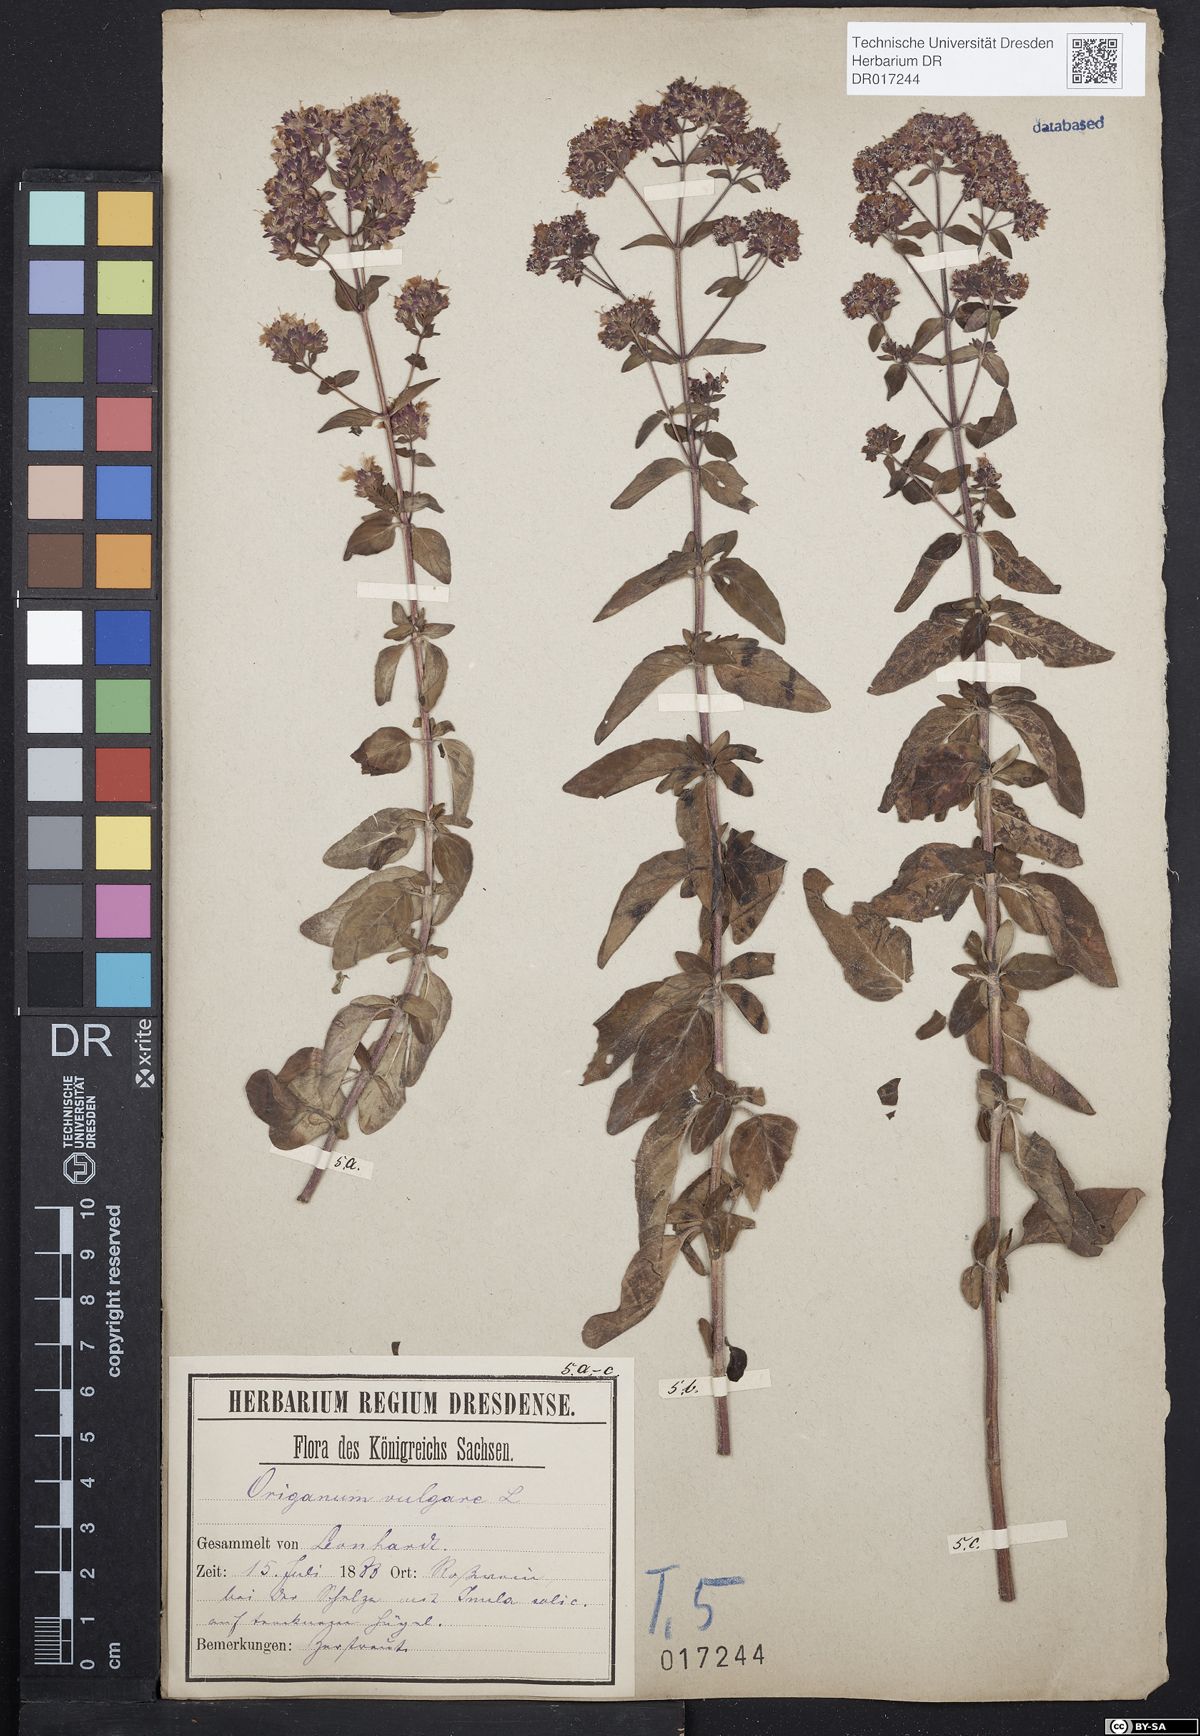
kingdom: Plantae
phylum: Tracheophyta
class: Magnoliopsida
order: Lamiales
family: Lamiaceae
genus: Origanum
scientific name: Origanum vulgare
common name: Wild marjoram
